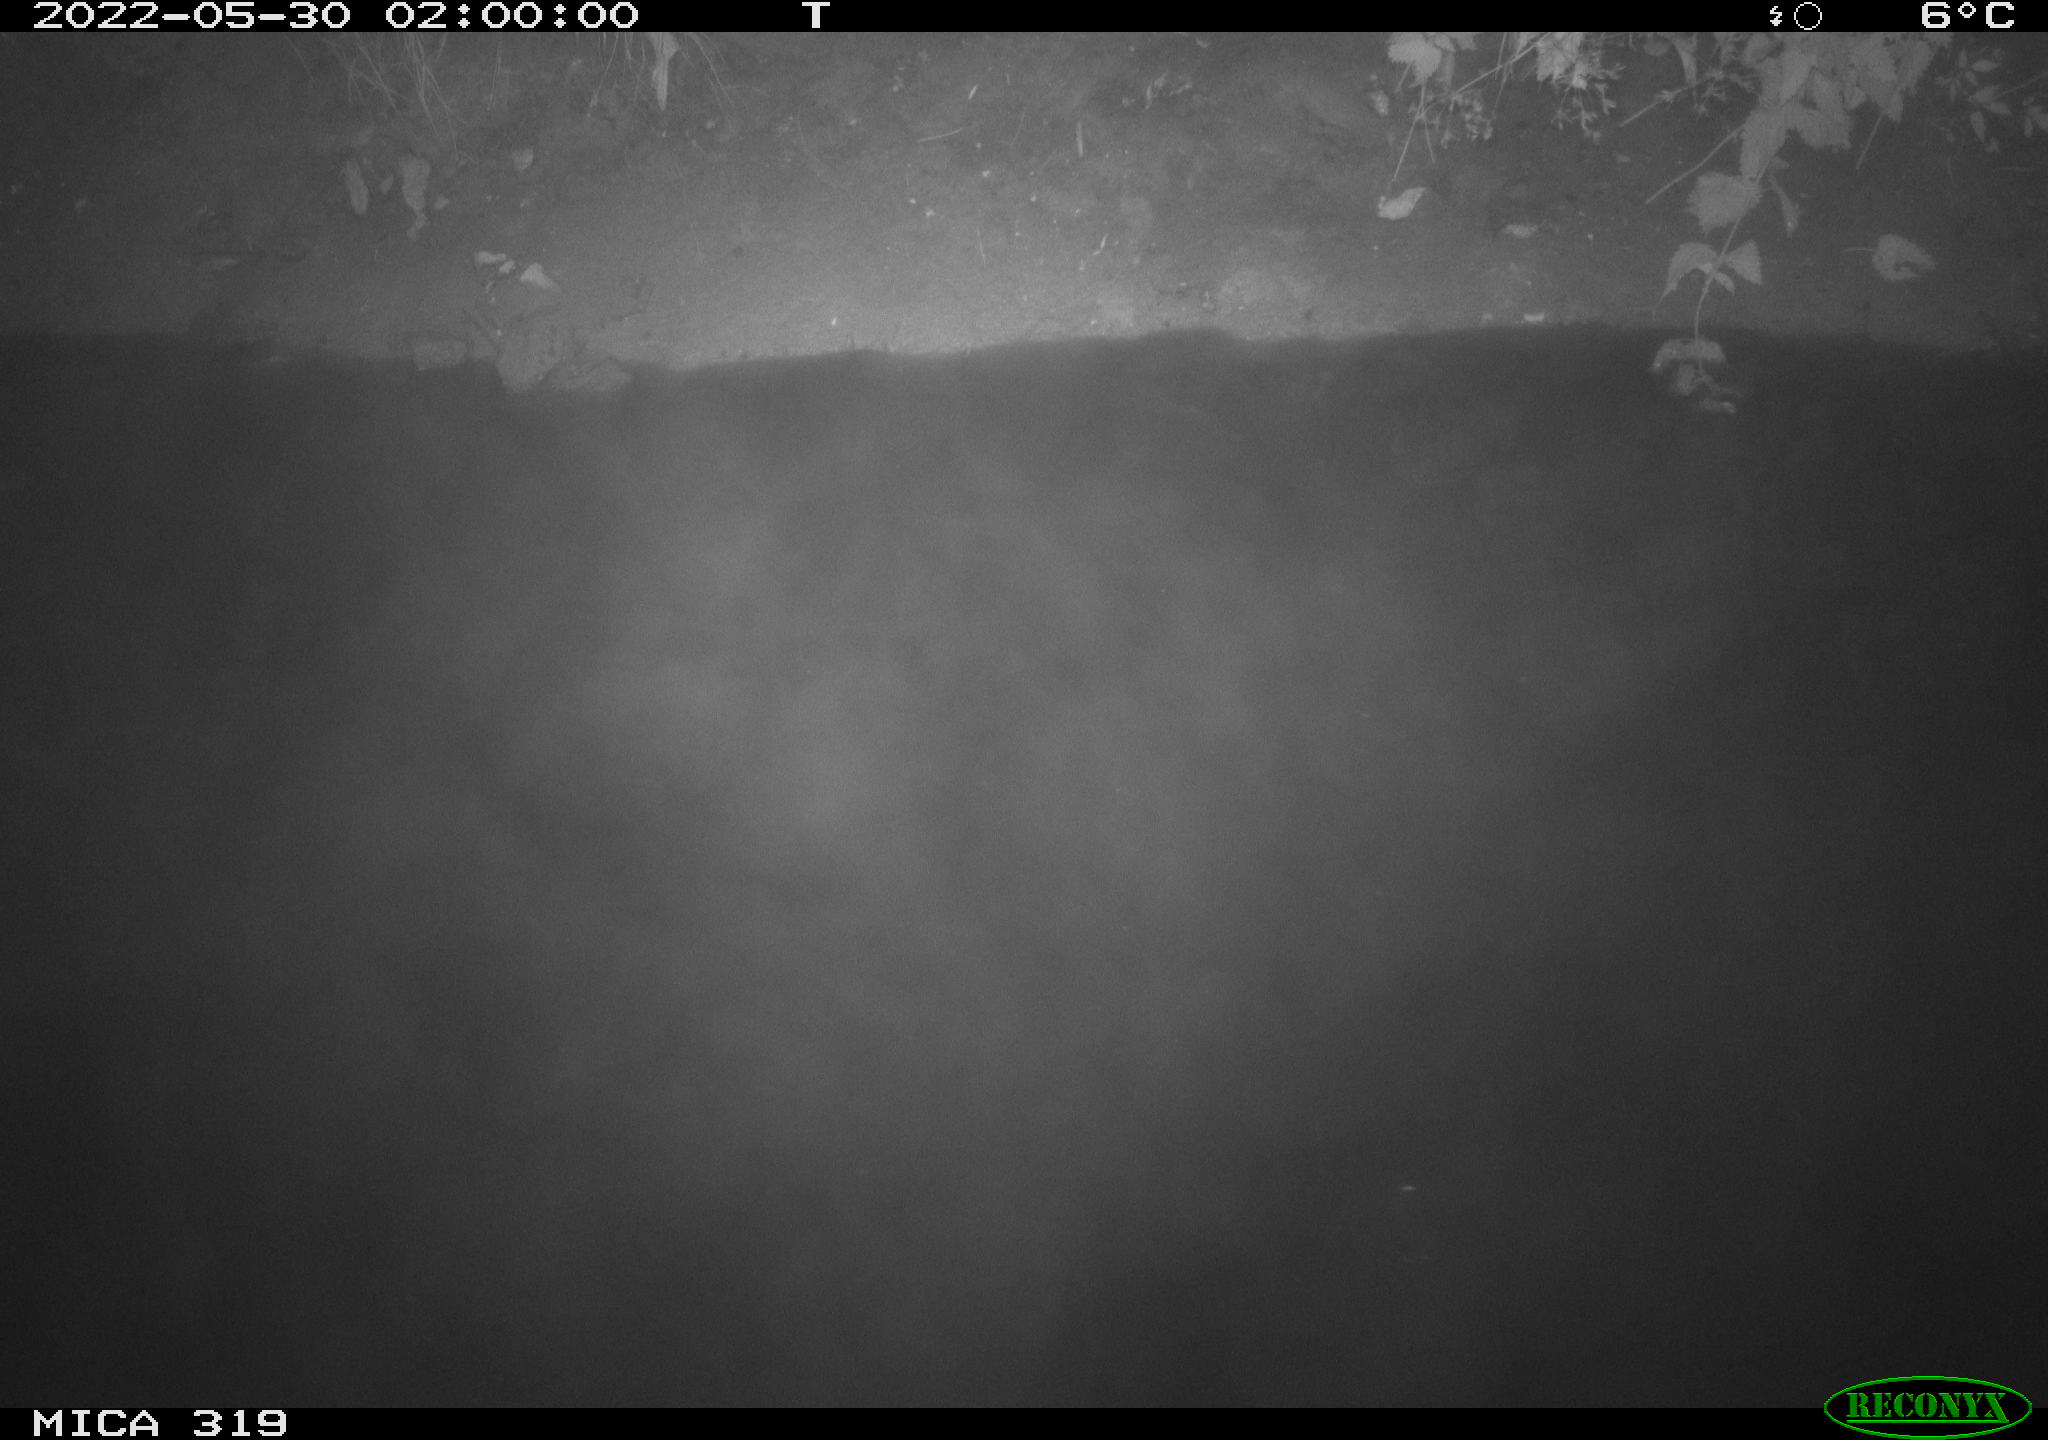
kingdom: Animalia
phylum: Chordata
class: Mammalia
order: Rodentia
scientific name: Rodentia
